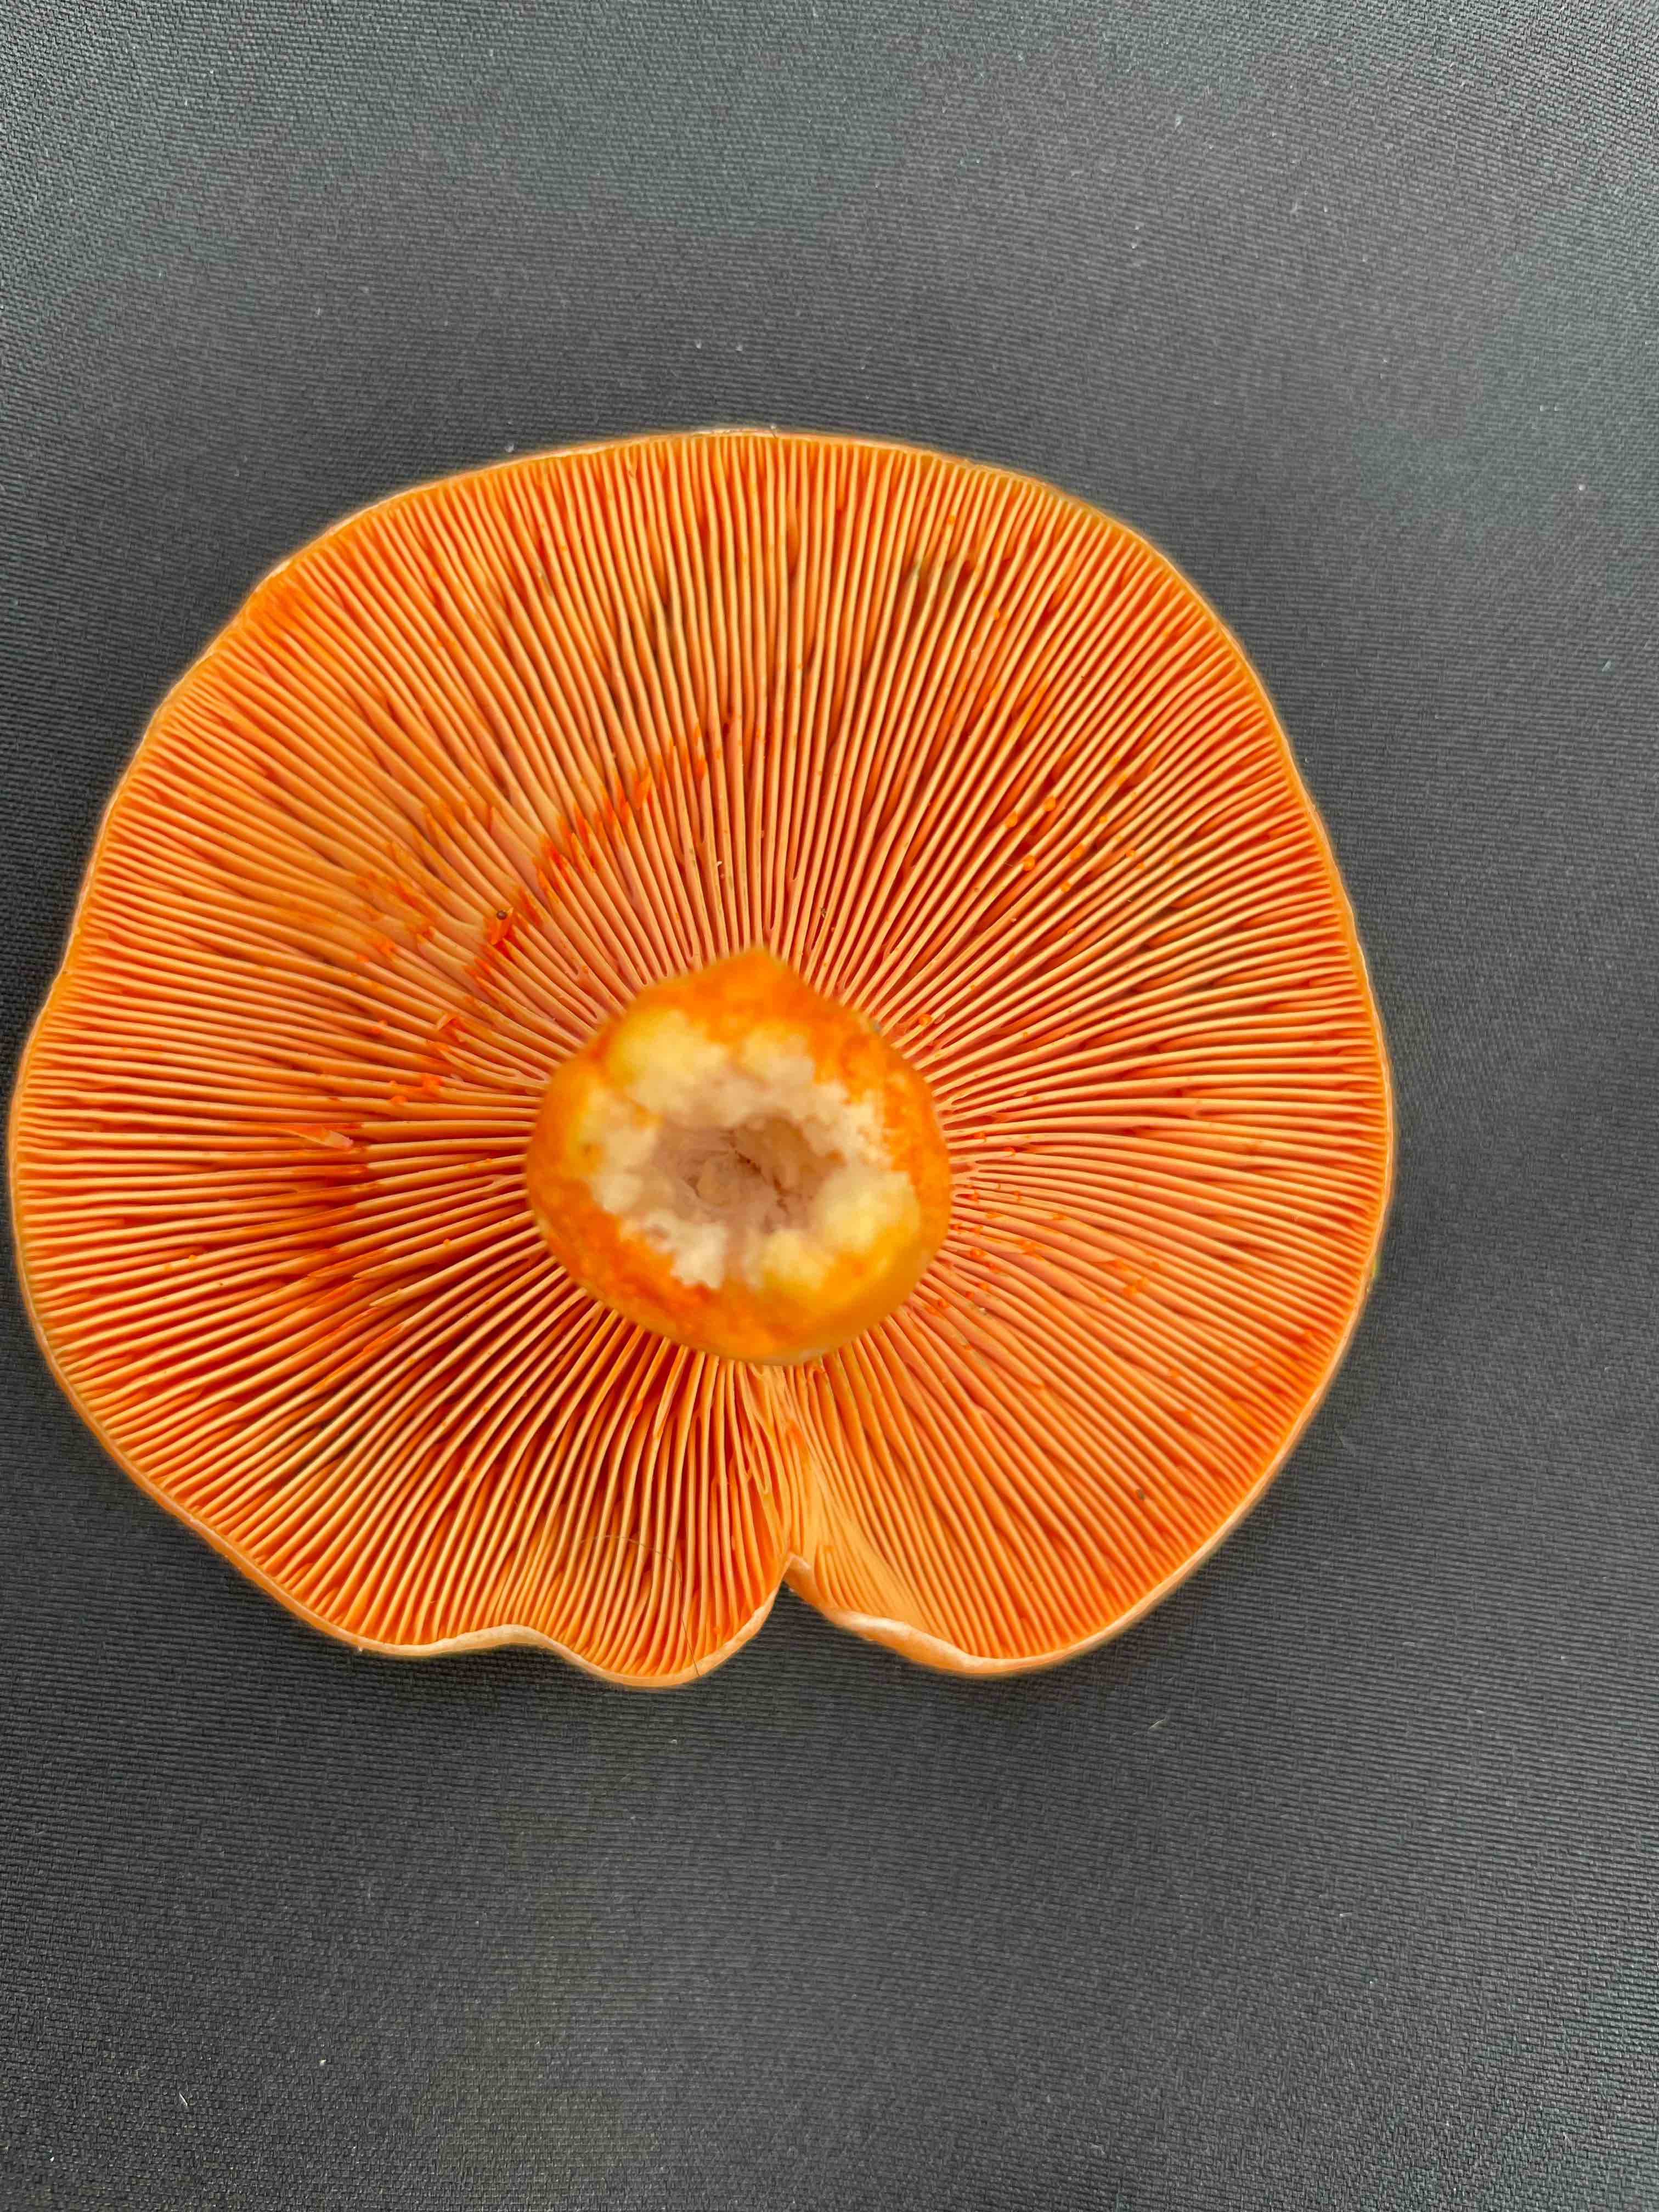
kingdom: Fungi
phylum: Basidiomycota
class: Agaricomycetes
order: Russulales
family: Russulaceae
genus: Lactarius
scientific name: Lactarius deliciosus
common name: velsmagende mælkehat
